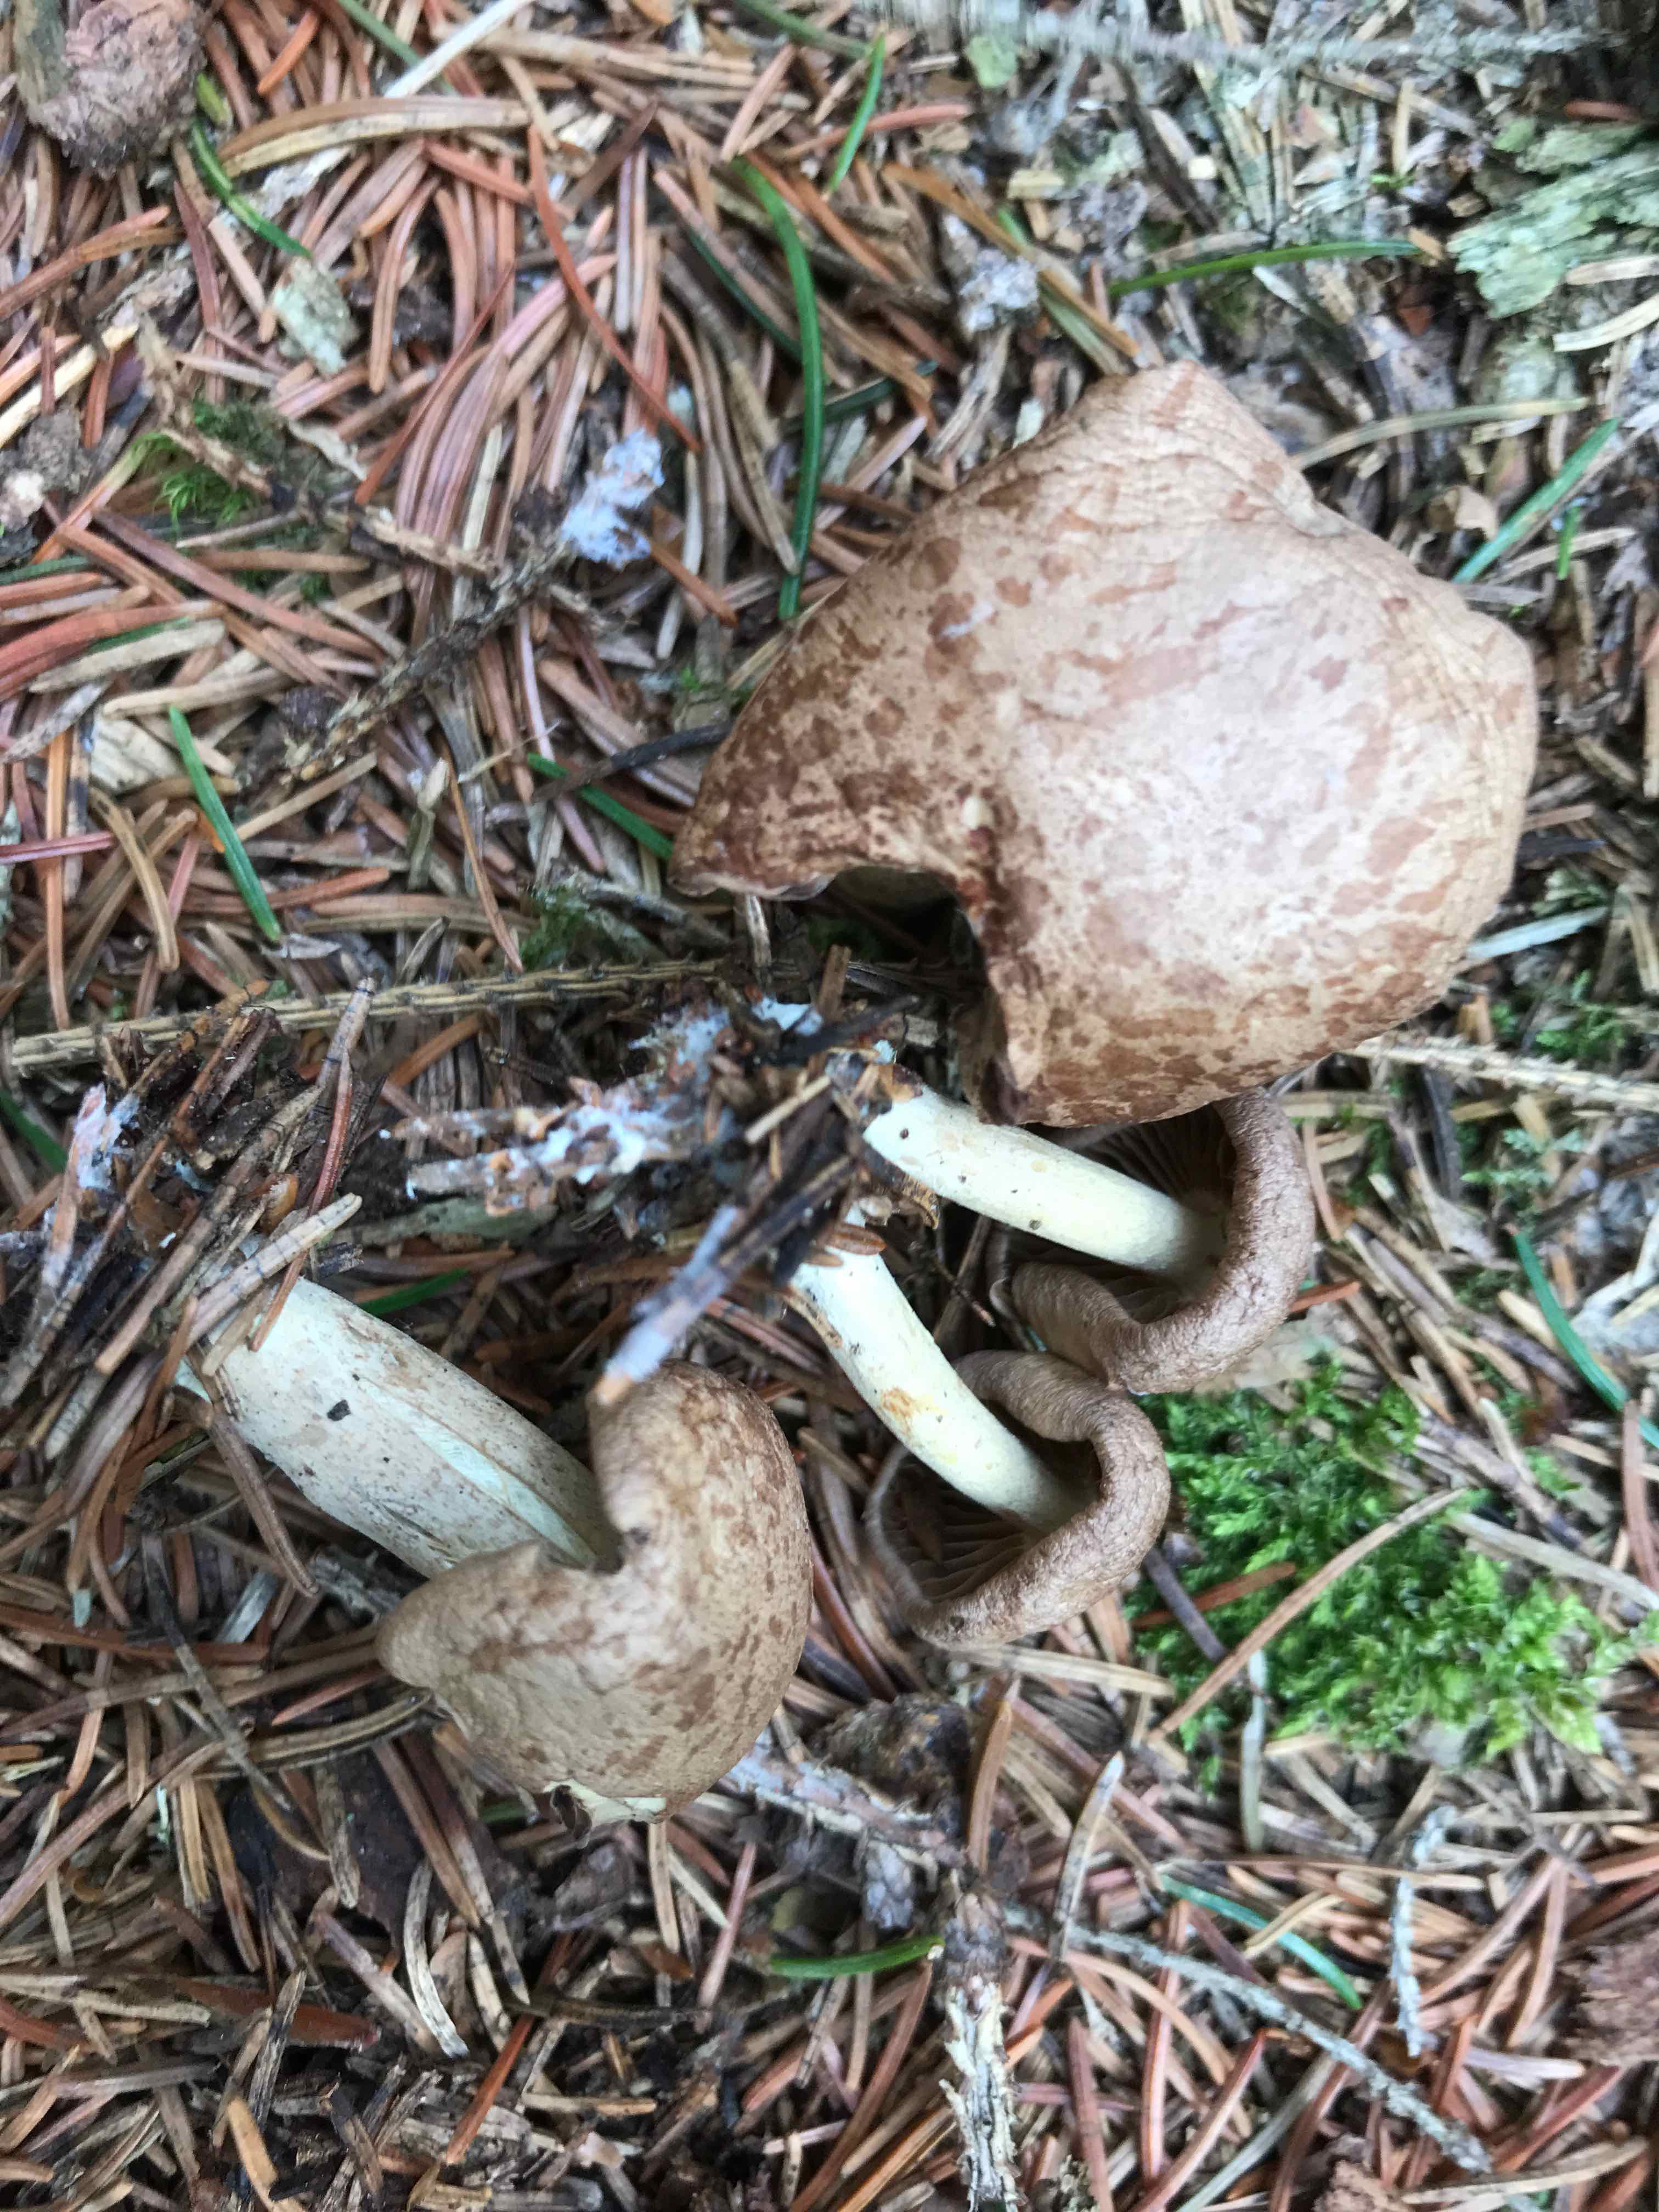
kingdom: Fungi
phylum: Basidiomycota
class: Agaricomycetes
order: Agaricales
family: Omphalotaceae
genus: Collybiopsis
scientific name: Collybiopsis peronata
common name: bestøvlet fladhat
